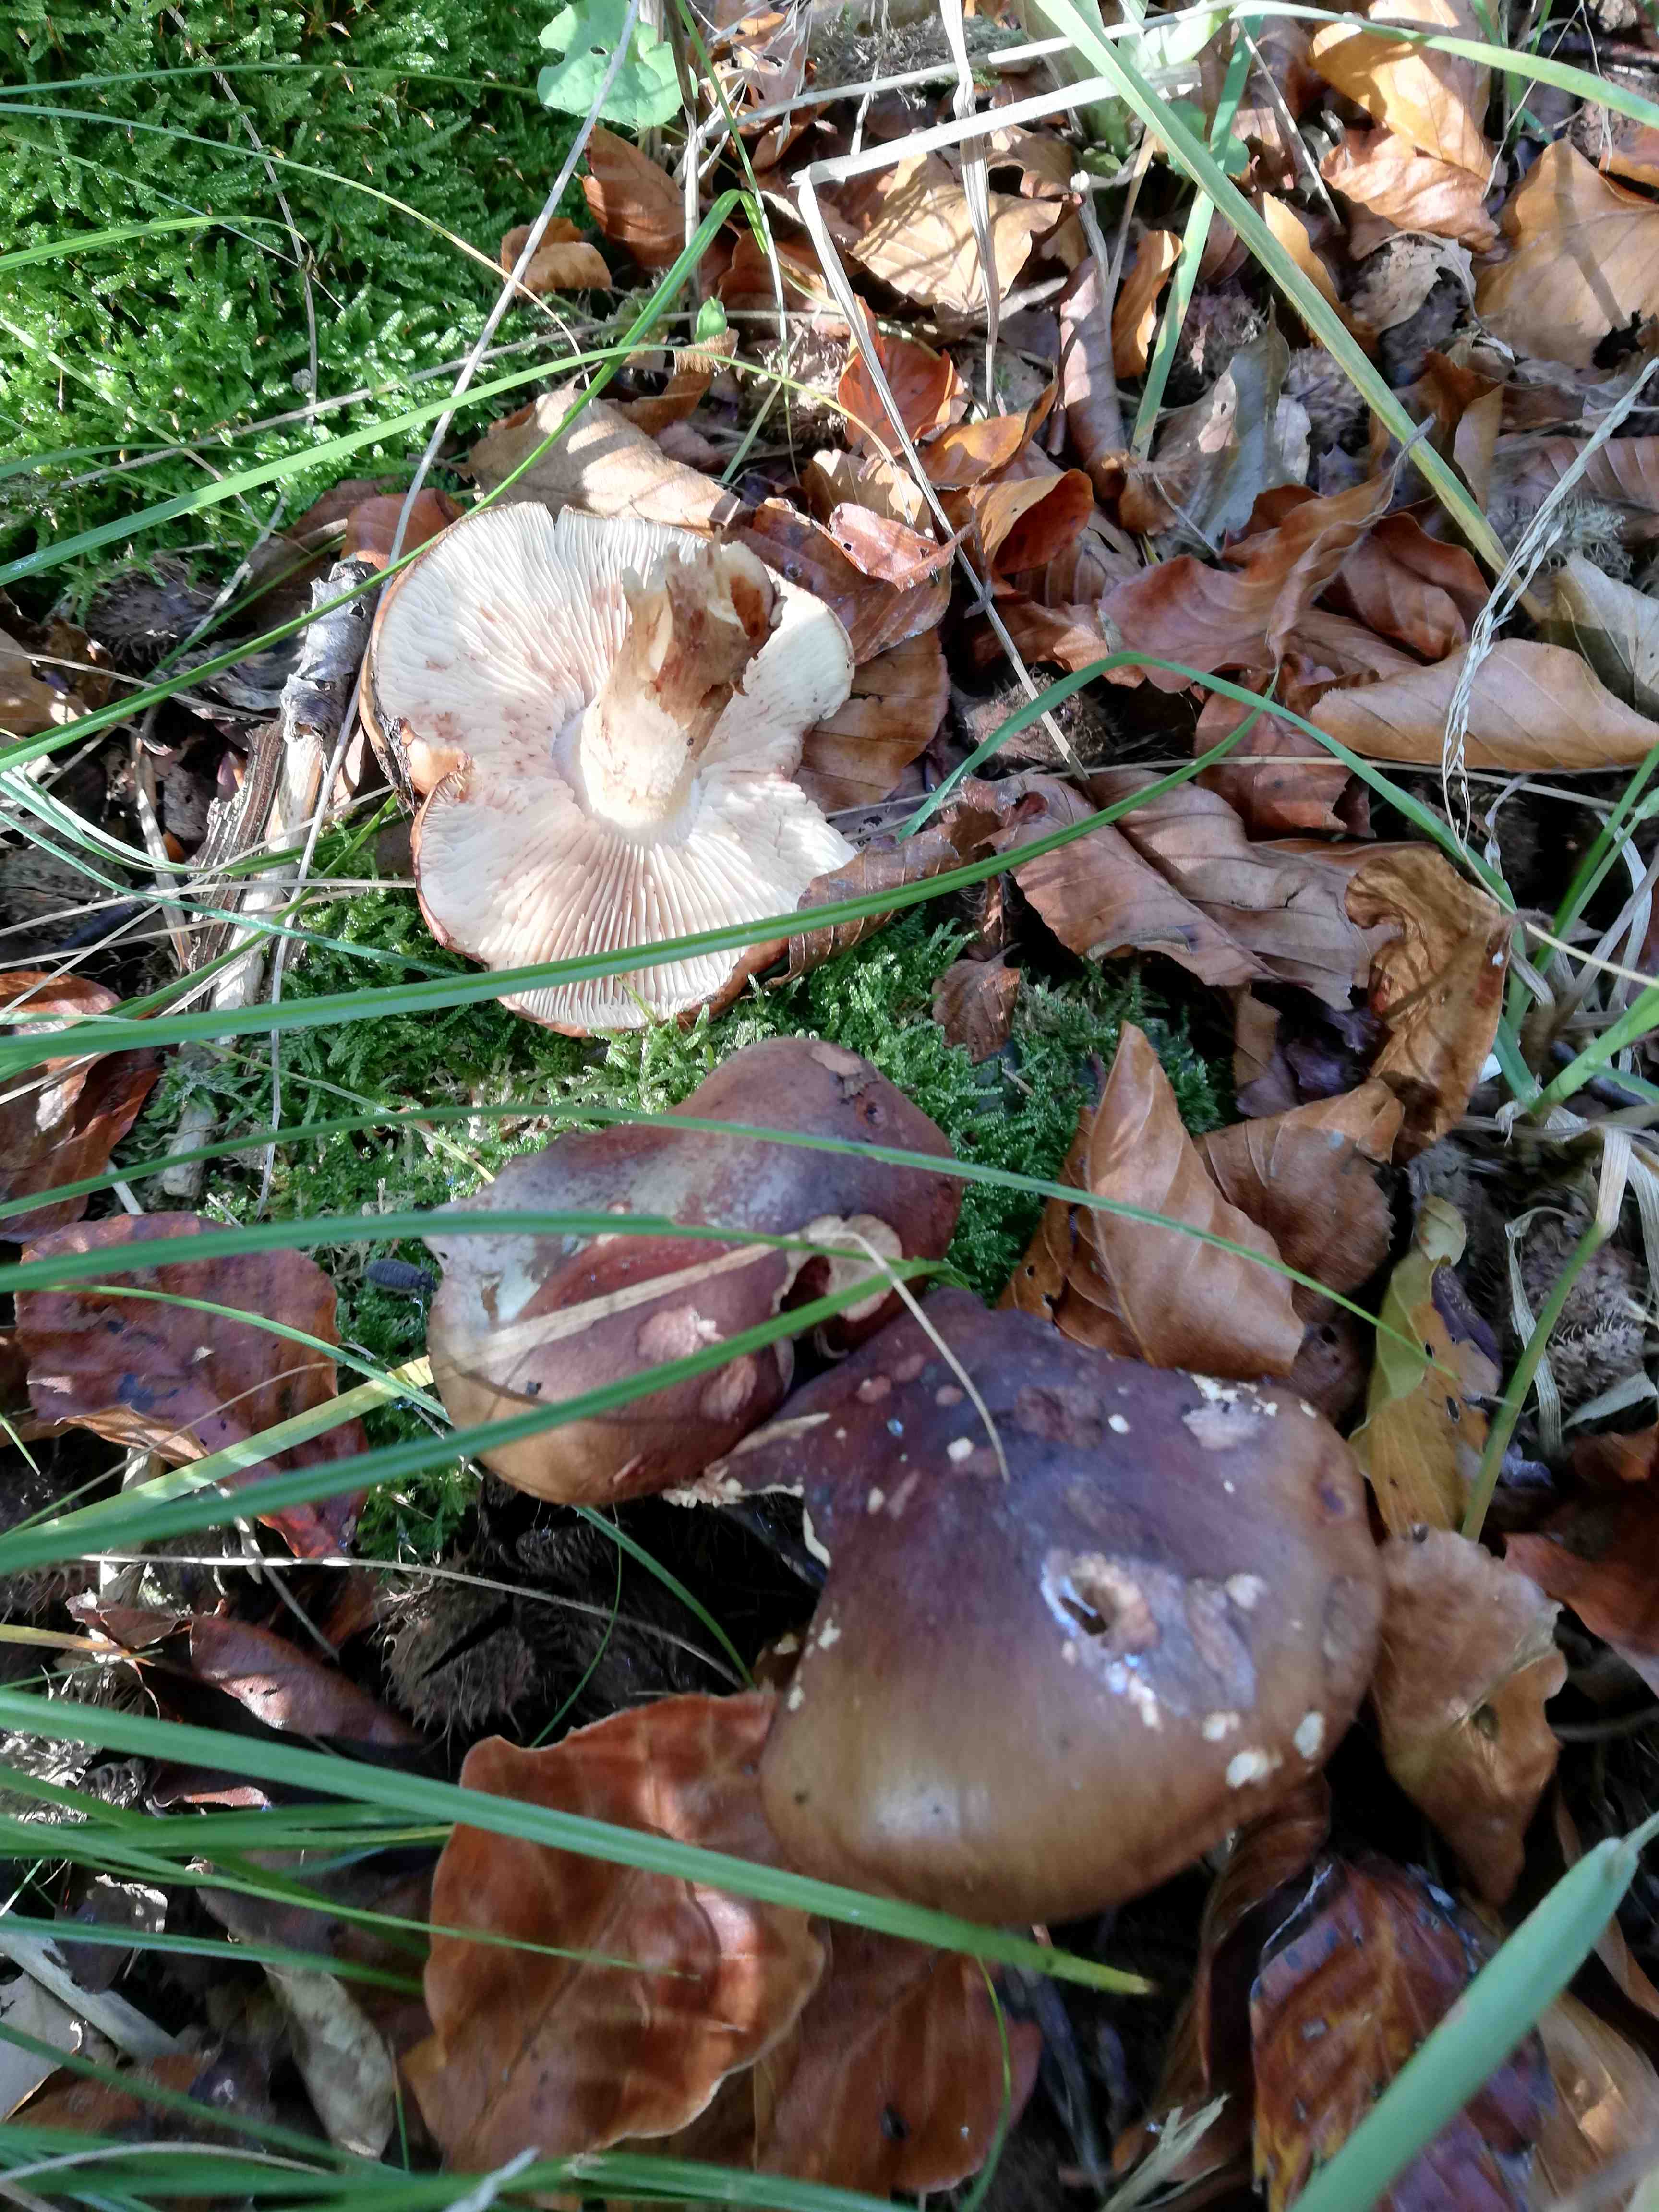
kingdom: Fungi
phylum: Basidiomycota
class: Agaricomycetes
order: Agaricales
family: Tricholomataceae
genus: Tricholoma
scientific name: Tricholoma ustale
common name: sveden ridderhat
